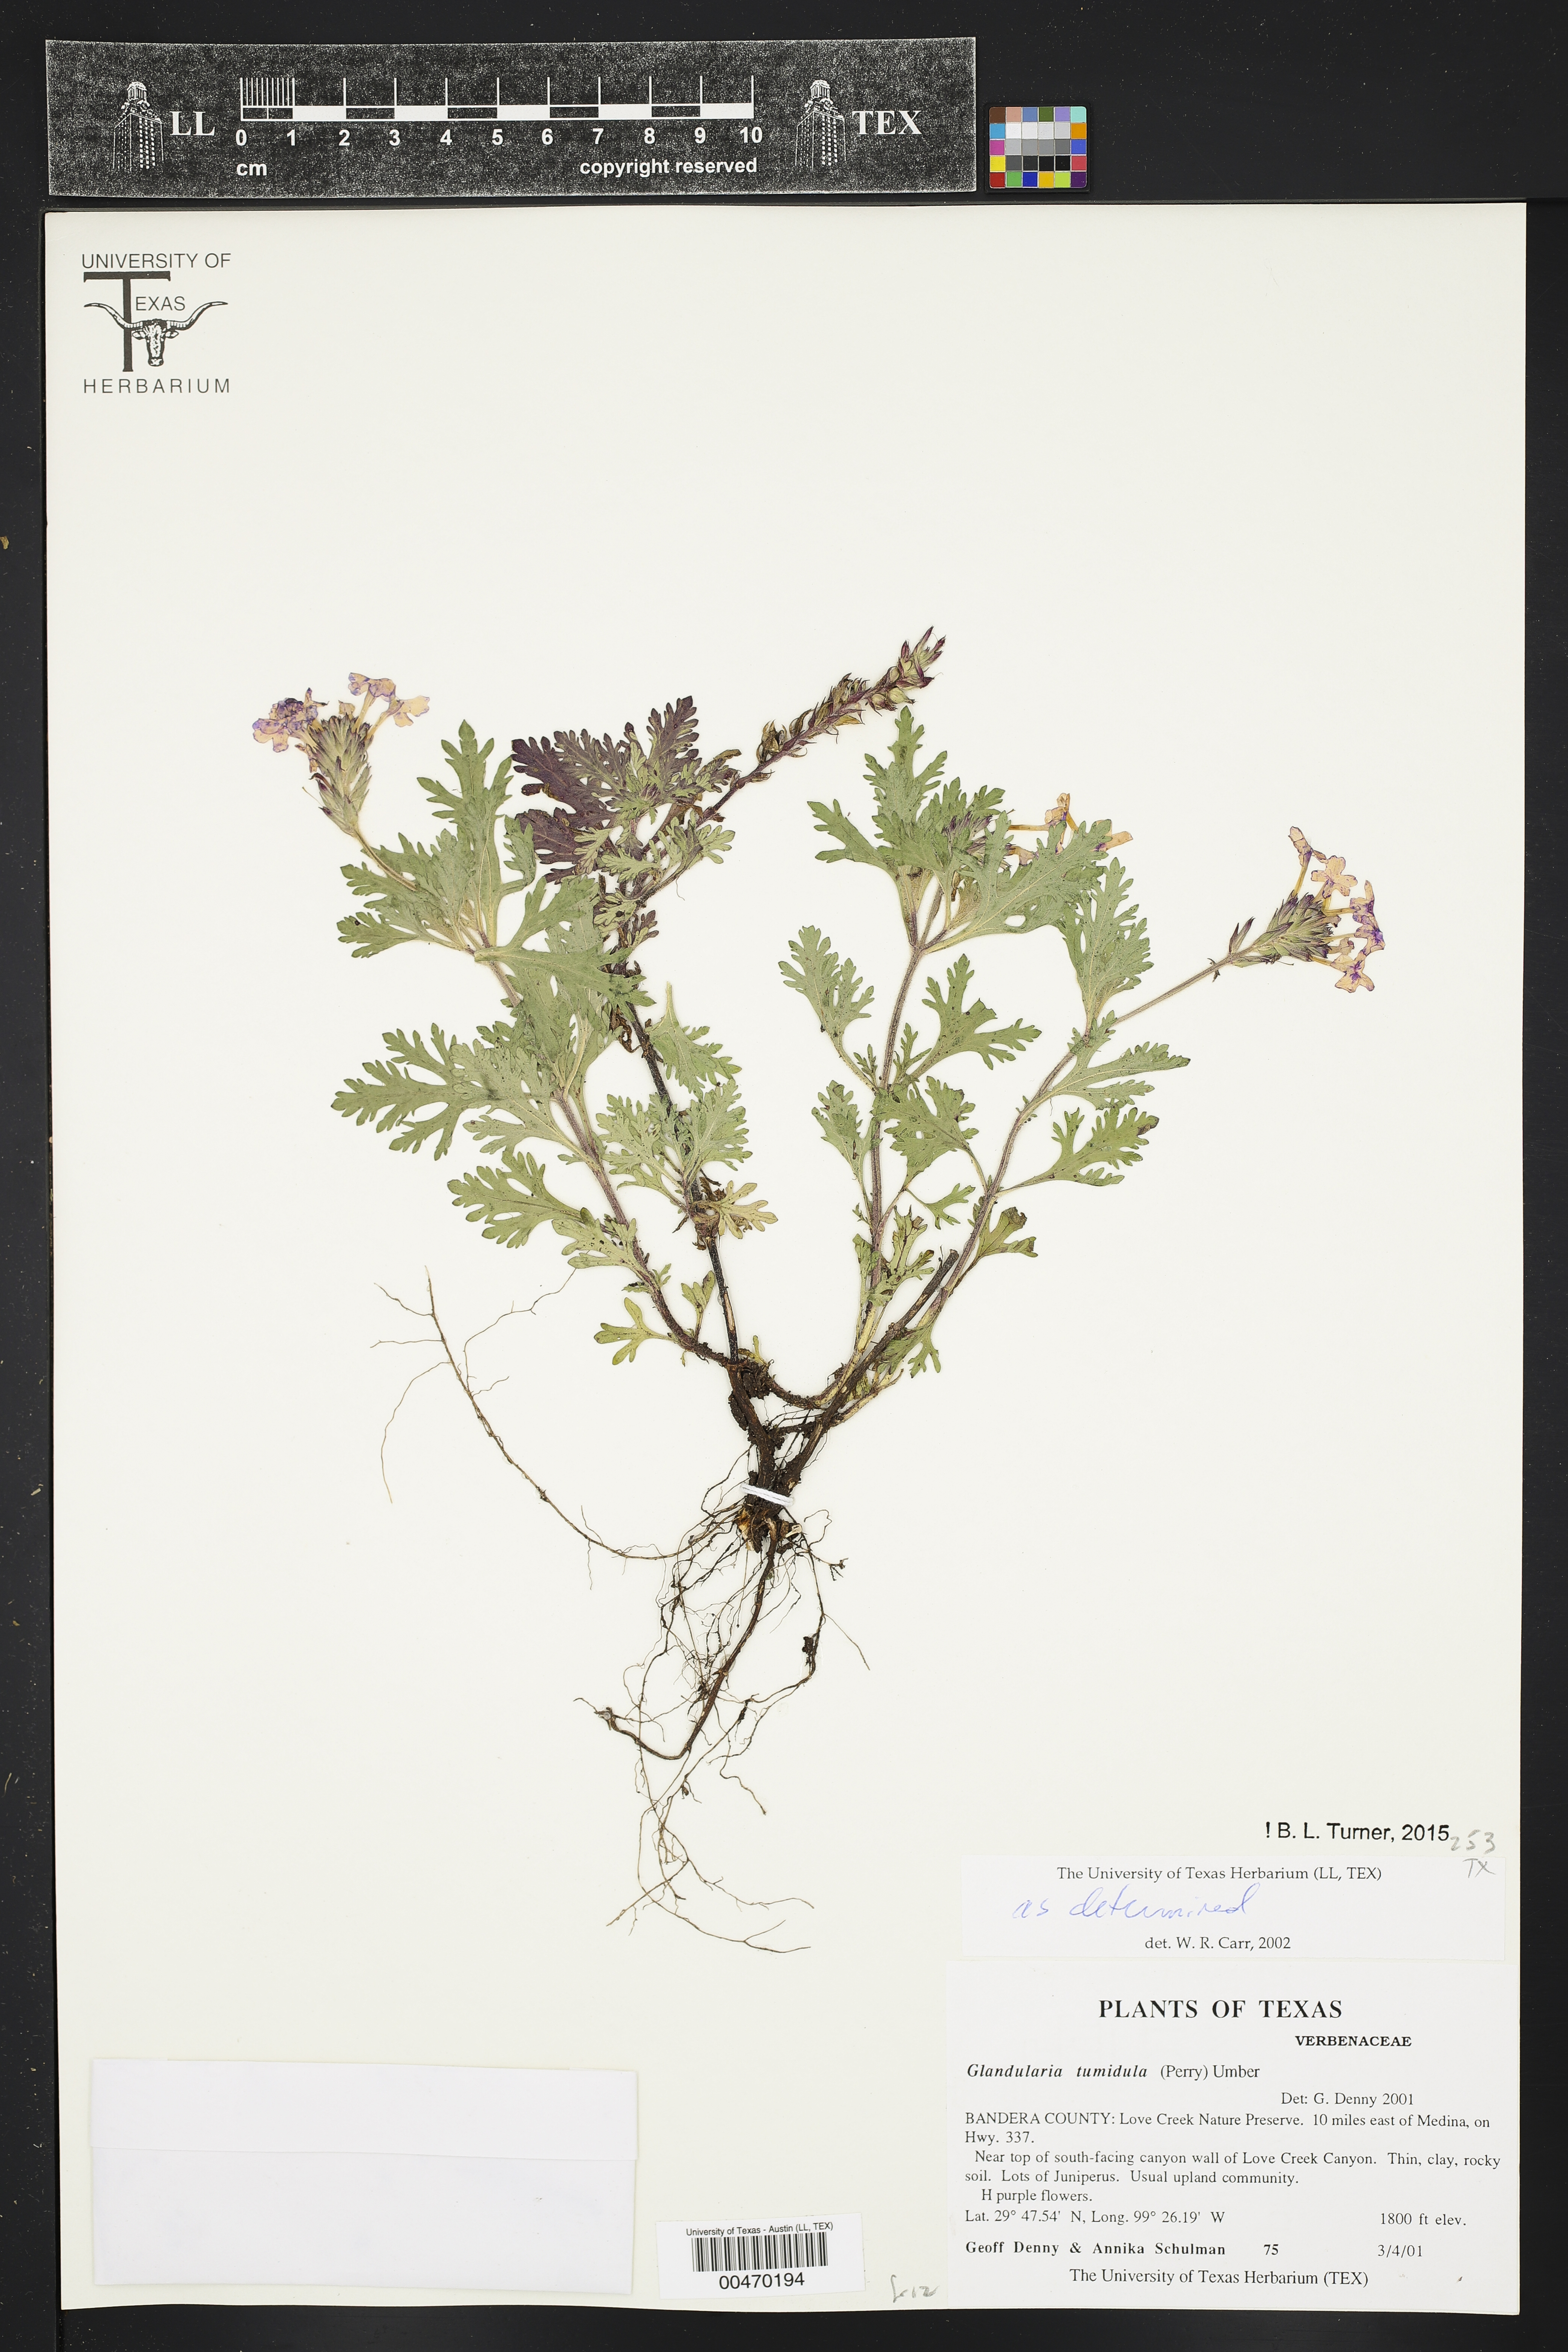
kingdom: Plantae
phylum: Tracheophyta
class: Magnoliopsida
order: Lamiales
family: Verbenaceae
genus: Verbena
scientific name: Verbena tumidula
